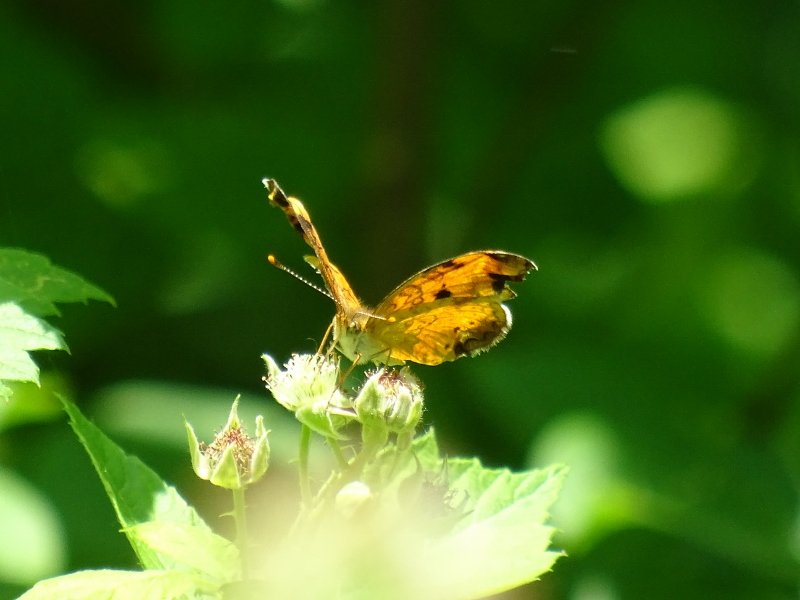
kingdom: Animalia
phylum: Arthropoda
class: Insecta
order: Lepidoptera
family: Nymphalidae
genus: Phyciodes
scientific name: Phyciodes tharos
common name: Northern Crescent
